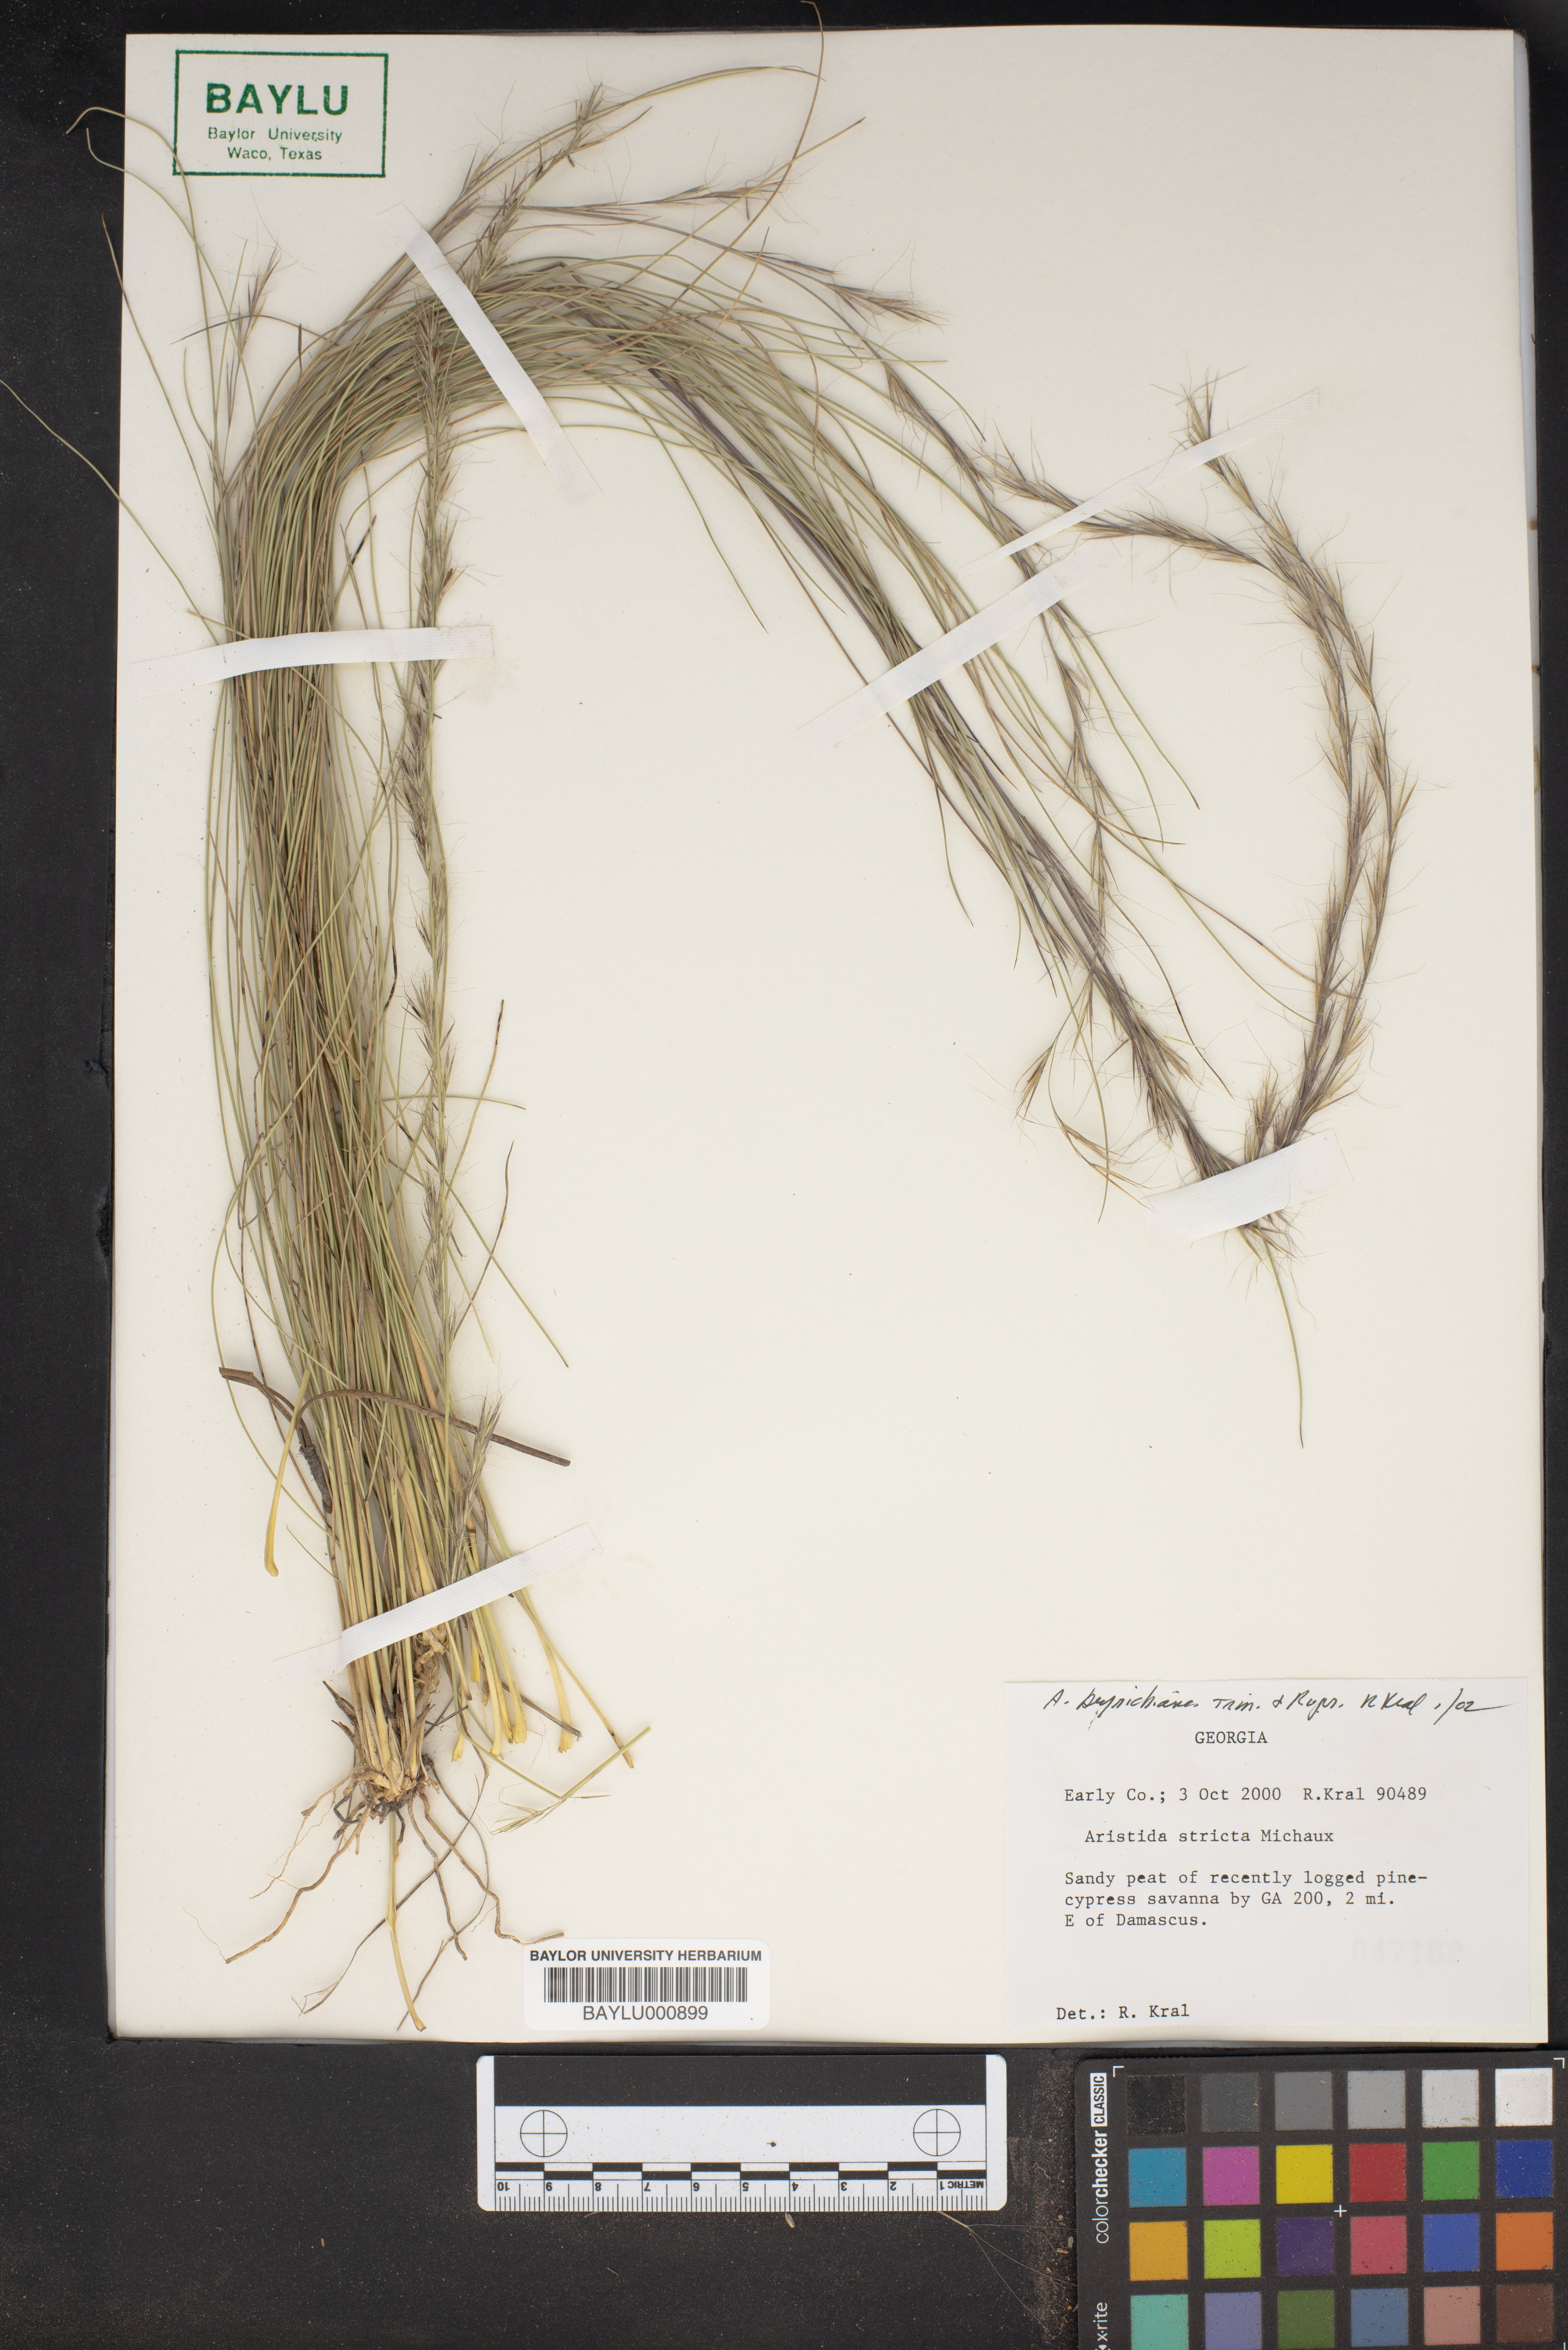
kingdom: Plantae
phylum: Tracheophyta
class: Liliopsida
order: Poales
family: Poaceae
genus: Aristida
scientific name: Aristida stricta
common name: Pineland three-awn
